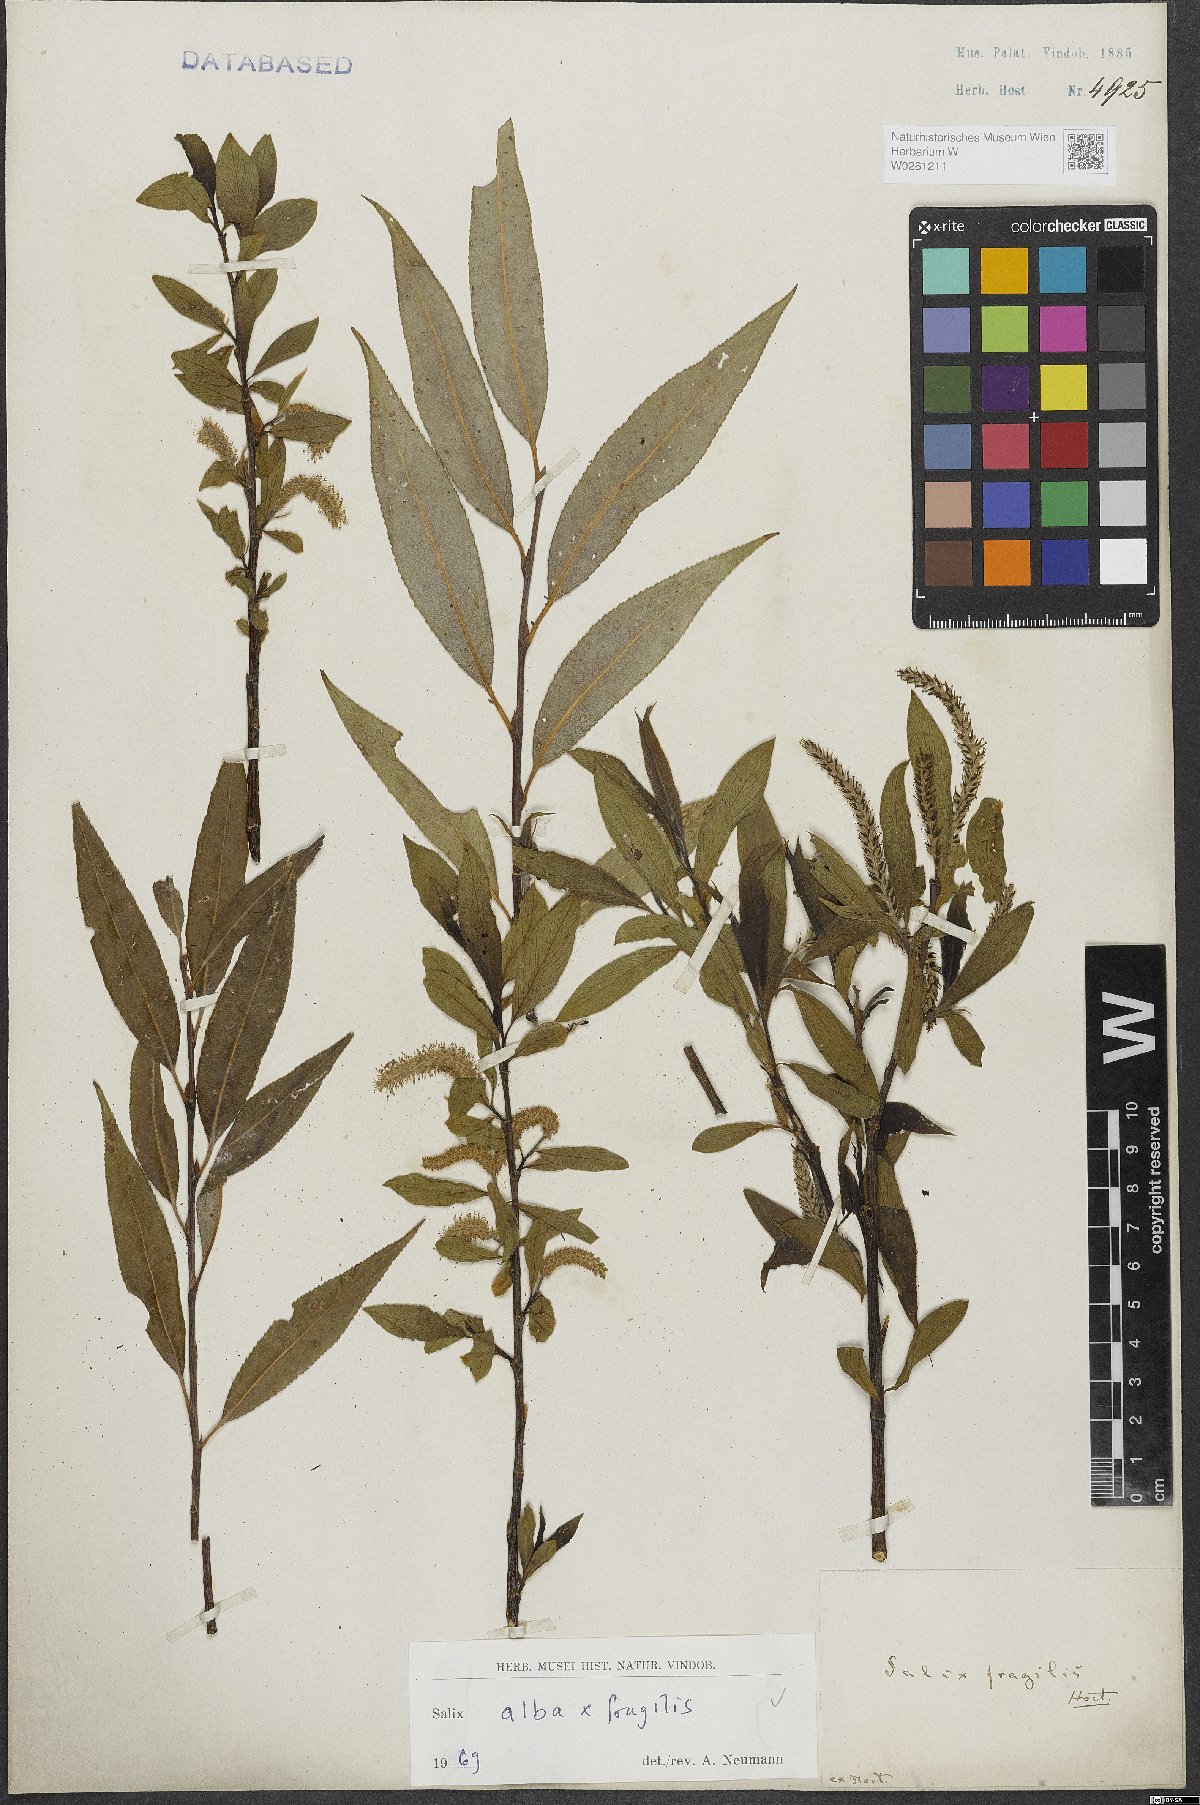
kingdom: Plantae
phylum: Tracheophyta
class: Magnoliopsida
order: Malpighiales
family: Salicaceae
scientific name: Salicaceae
